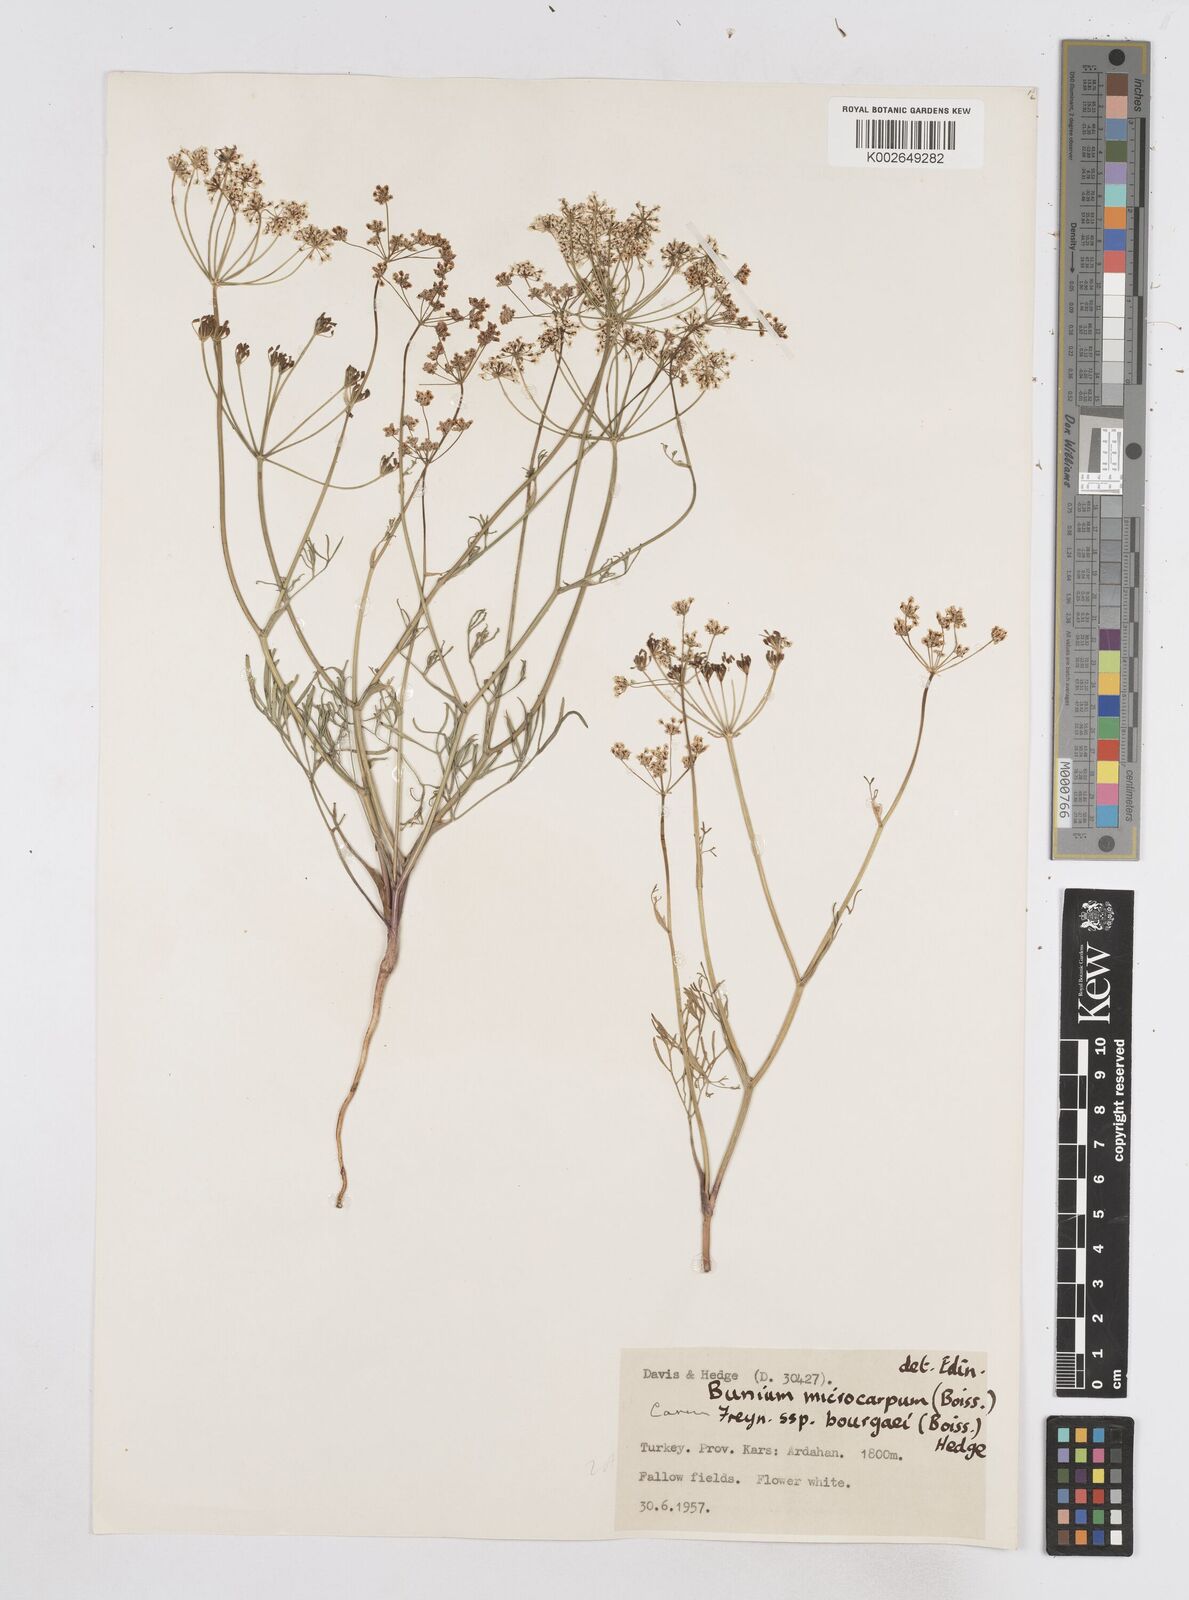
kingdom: Plantae
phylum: Tracheophyta
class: Magnoliopsida
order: Apiales
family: Apiaceae
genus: Bunium
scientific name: Bunium bourgaei
